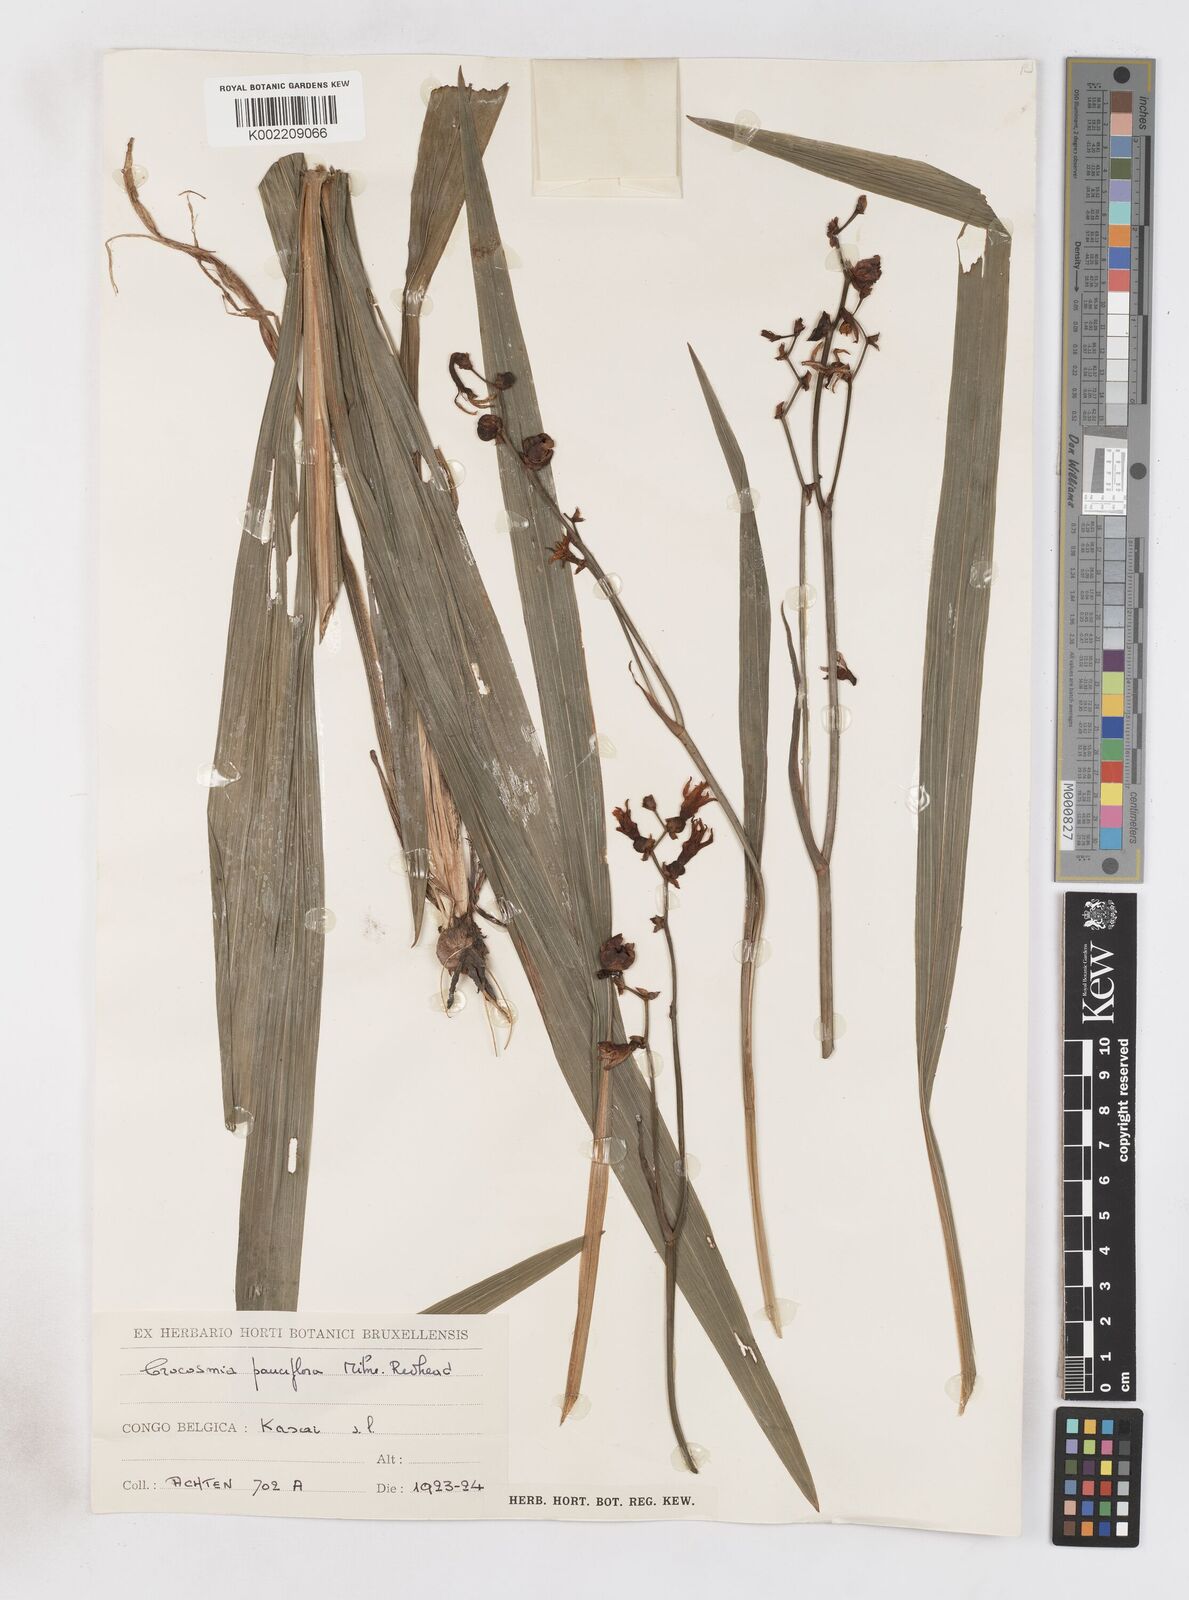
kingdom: Plantae
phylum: Tracheophyta
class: Liliopsida
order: Asparagales
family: Iridaceae
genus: Crocosmia
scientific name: Crocosmia aurea
